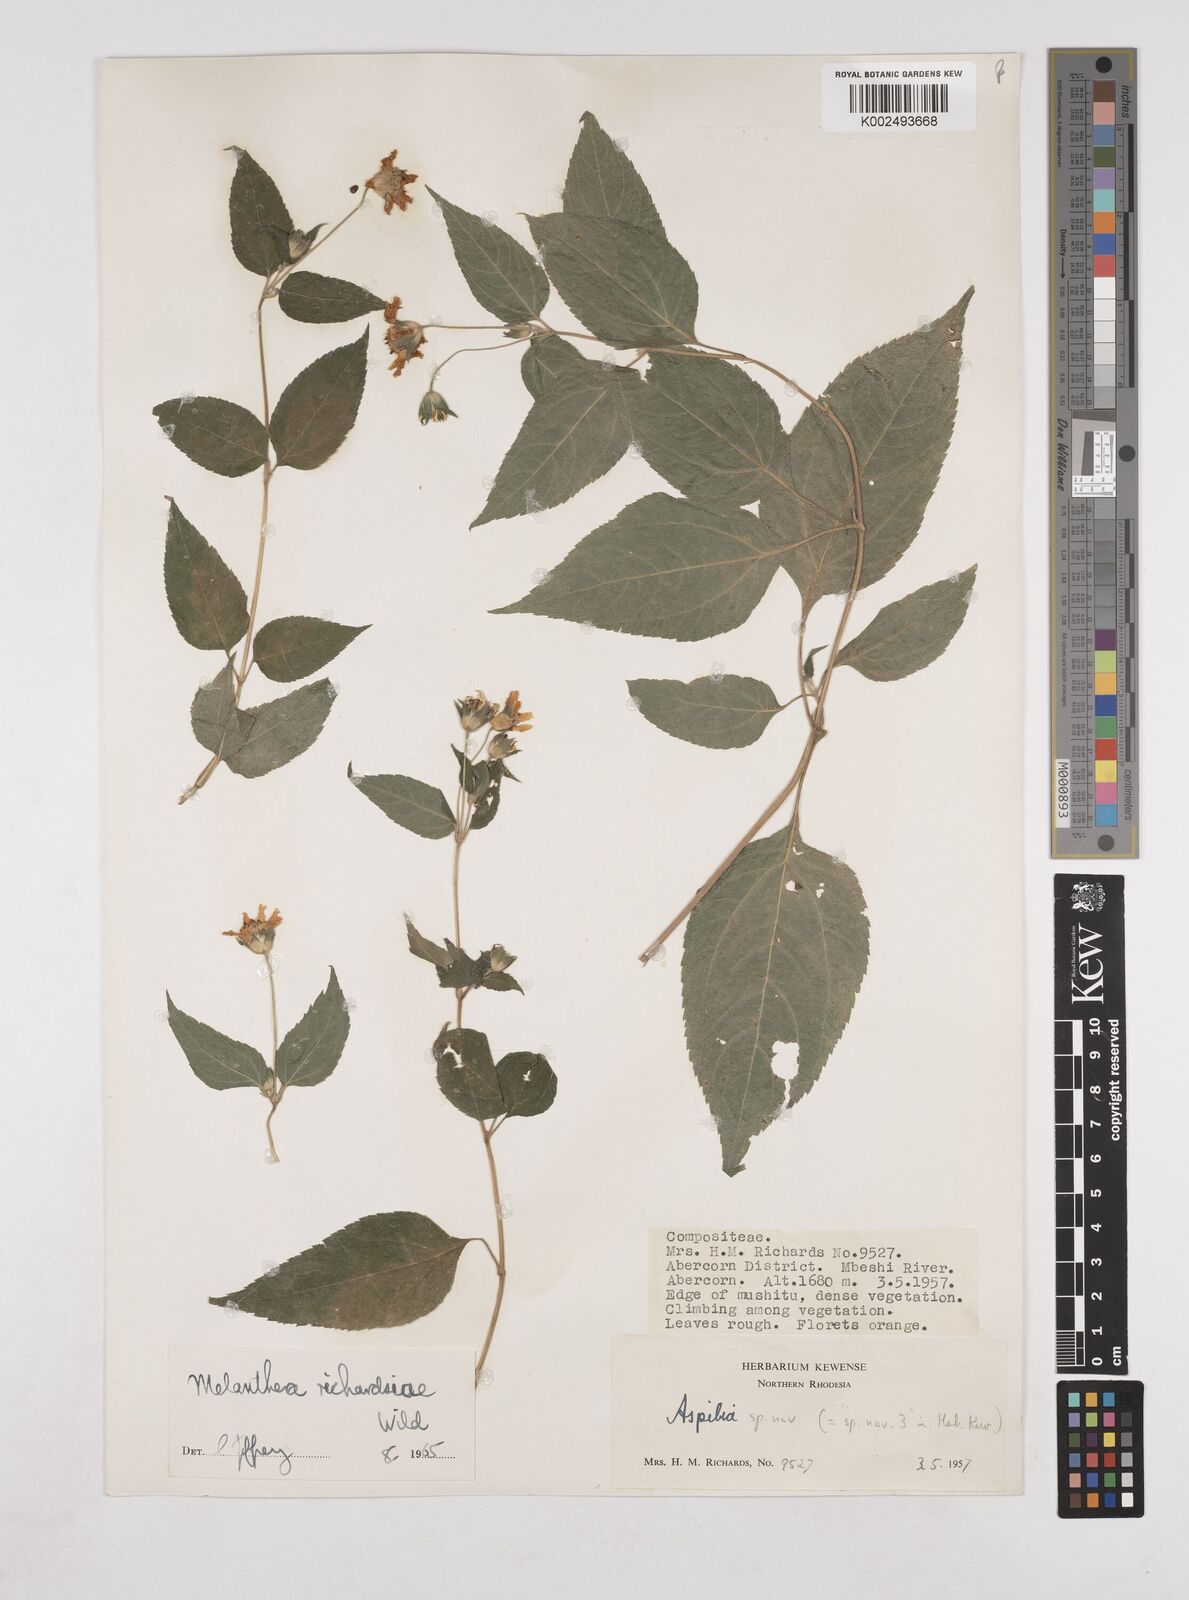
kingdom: Plantae
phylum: Tracheophyta
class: Magnoliopsida
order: Asterales
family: Asteraceae
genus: Lipotriche
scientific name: Lipotriche richardsiae
